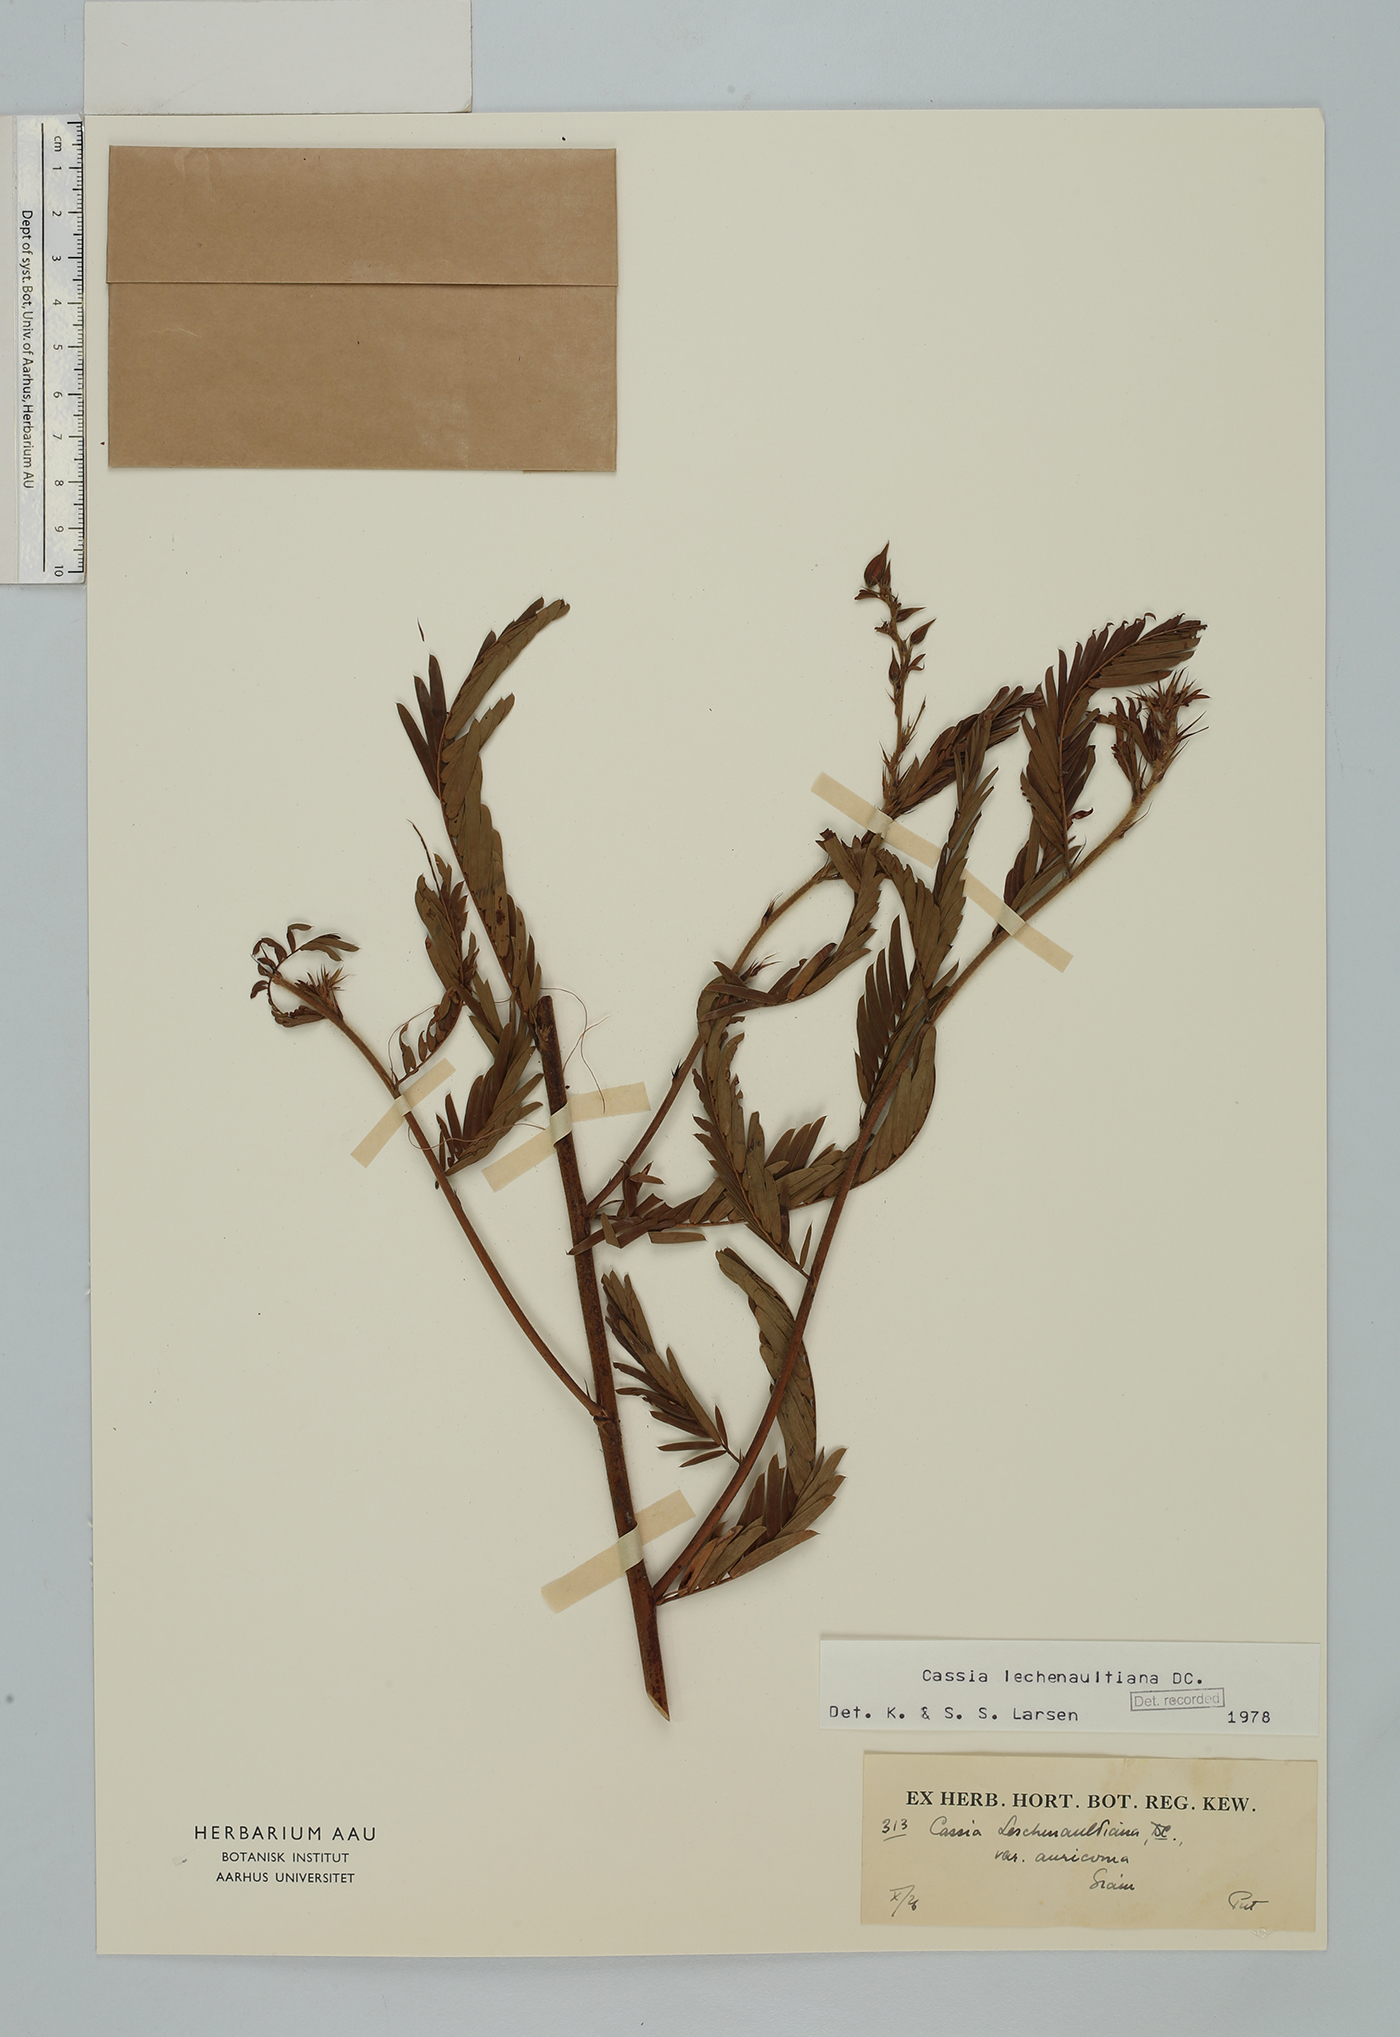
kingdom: Plantae
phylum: Tracheophyta
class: Magnoliopsida
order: Fabales
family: Fabaceae
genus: Chamaecrista
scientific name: Chamaecrista leschenaultiana
